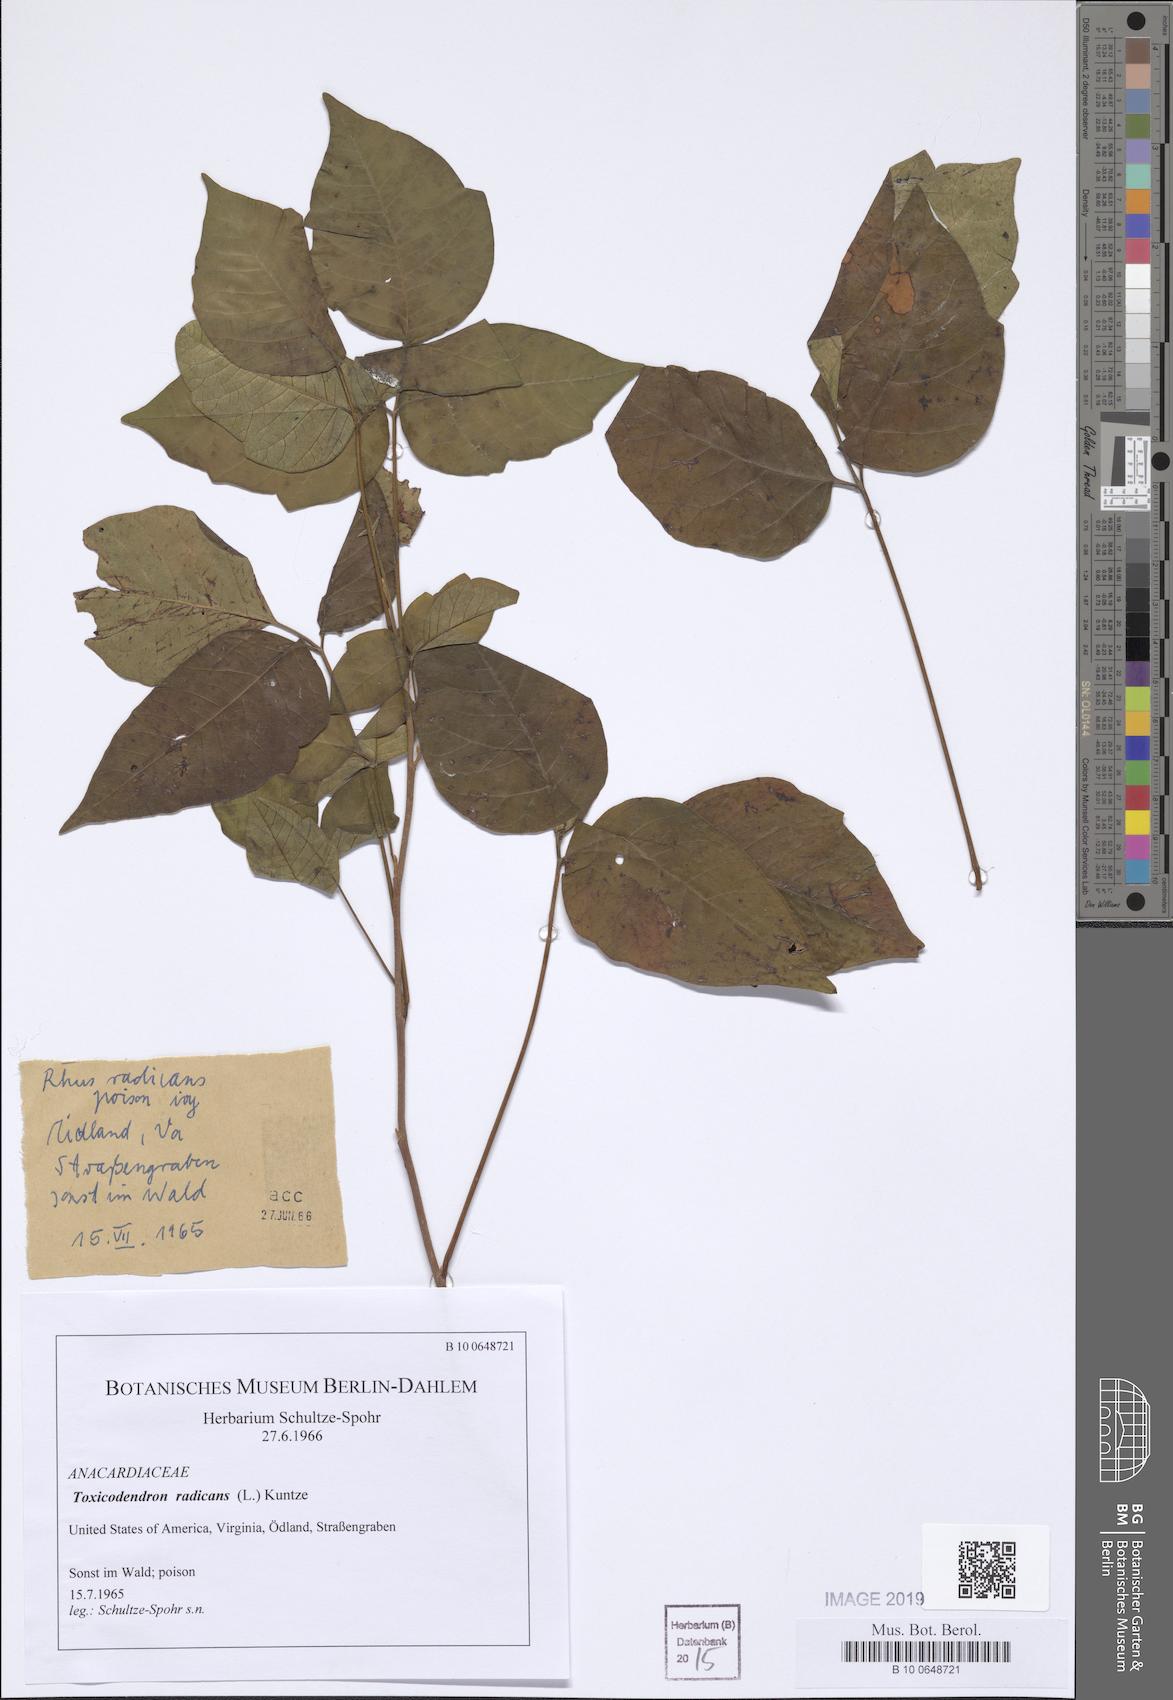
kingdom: Plantae
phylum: Tracheophyta
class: Magnoliopsida
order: Sapindales
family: Anacardiaceae
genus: Toxicodendron
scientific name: Toxicodendron radicans
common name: Poison ivy
